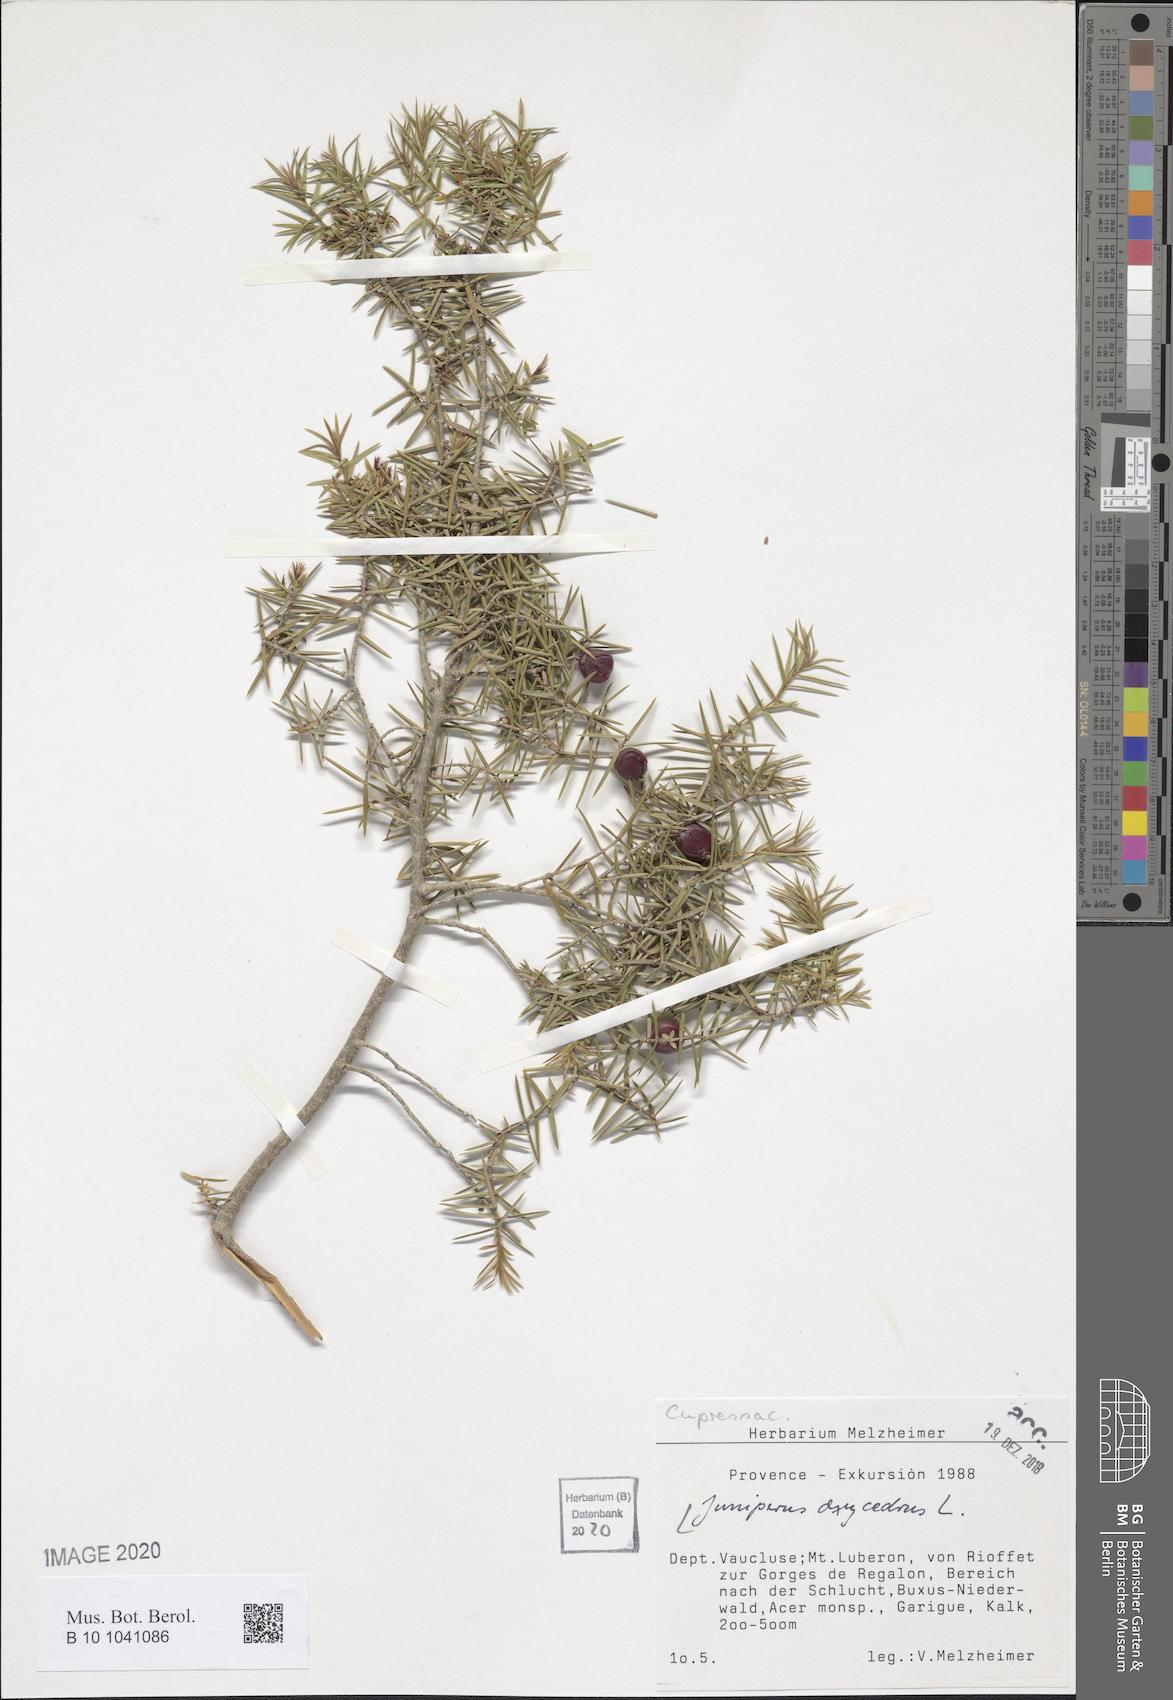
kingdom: Plantae
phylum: Tracheophyta
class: Pinopsida
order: Pinales
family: Cupressaceae
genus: Juniperus
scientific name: Juniperus oxycedrus
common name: Prickly juniper
